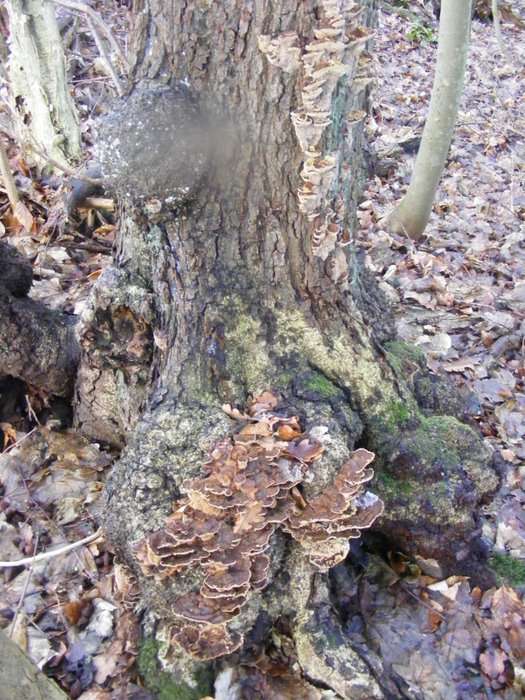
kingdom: Fungi
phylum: Basidiomycota
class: Agaricomycetes
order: Hymenochaetales
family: Hymenochaetaceae
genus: Xanthoporia
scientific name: Xanthoporia radiata
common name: elle-spejlporesvamp
